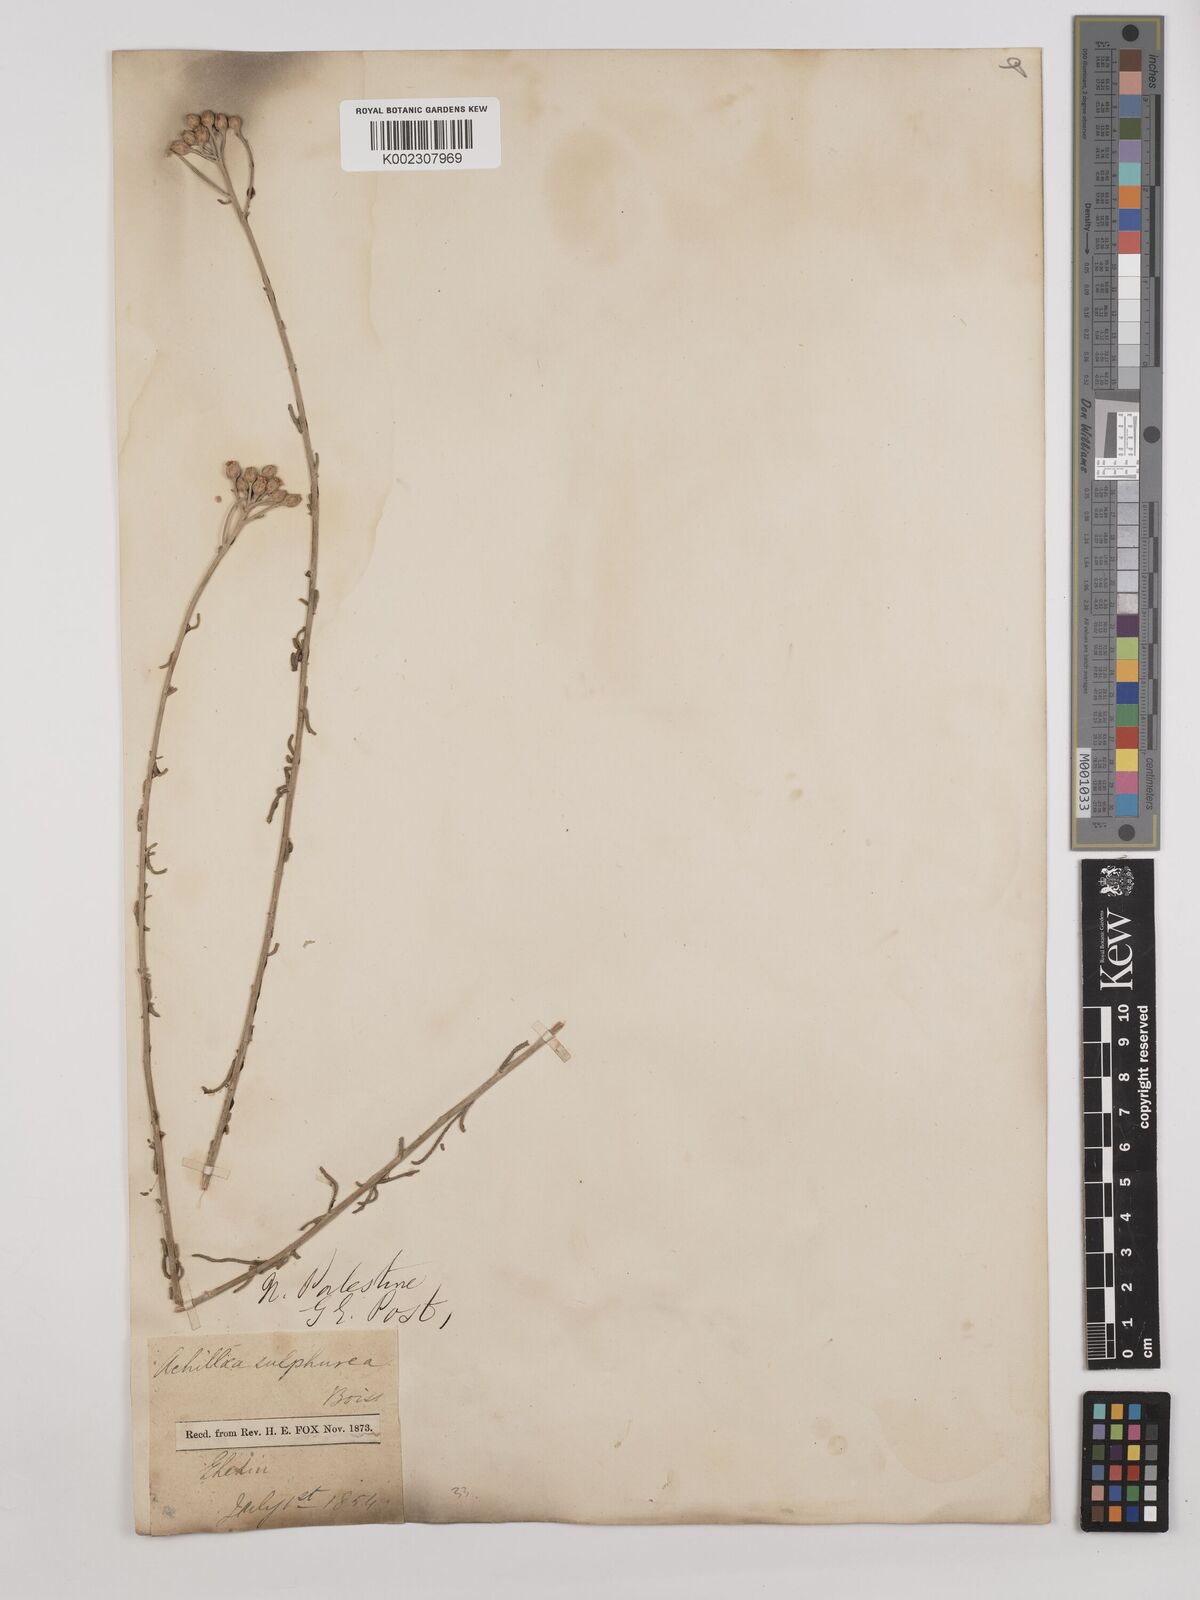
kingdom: Plantae
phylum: Tracheophyta
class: Magnoliopsida
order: Asterales
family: Asteraceae
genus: Achillea
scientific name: Achillea falcata
